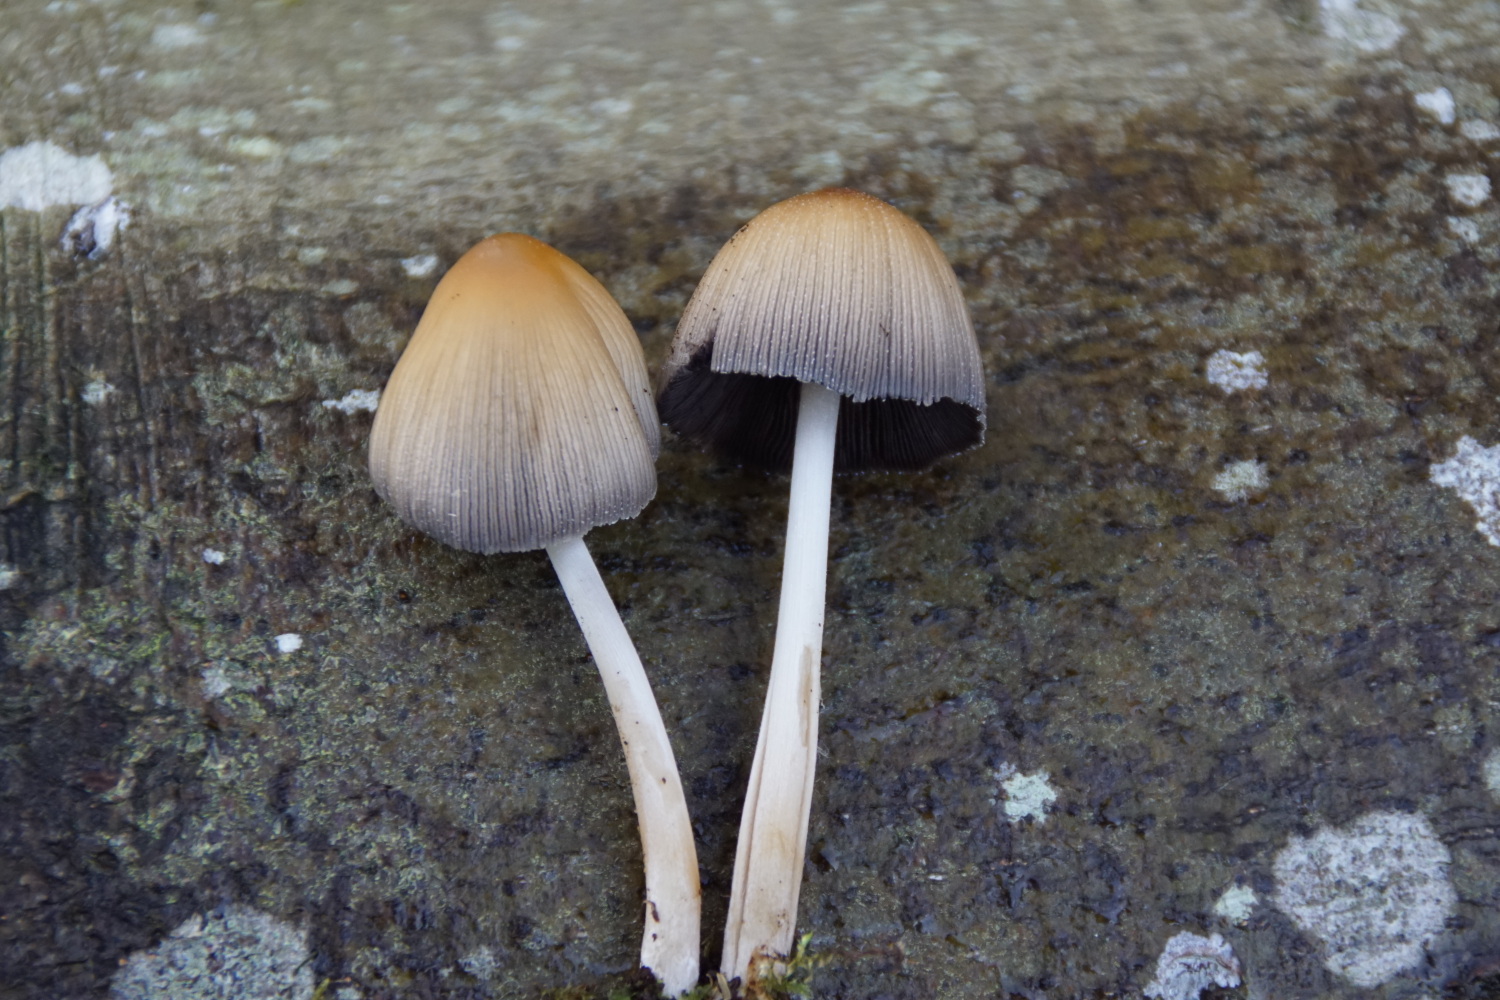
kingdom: Fungi
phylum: Basidiomycota
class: Agaricomycetes
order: Agaricales
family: Psathyrellaceae
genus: Coprinellus
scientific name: Coprinellus micaceus
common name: glimmer-blækhat
